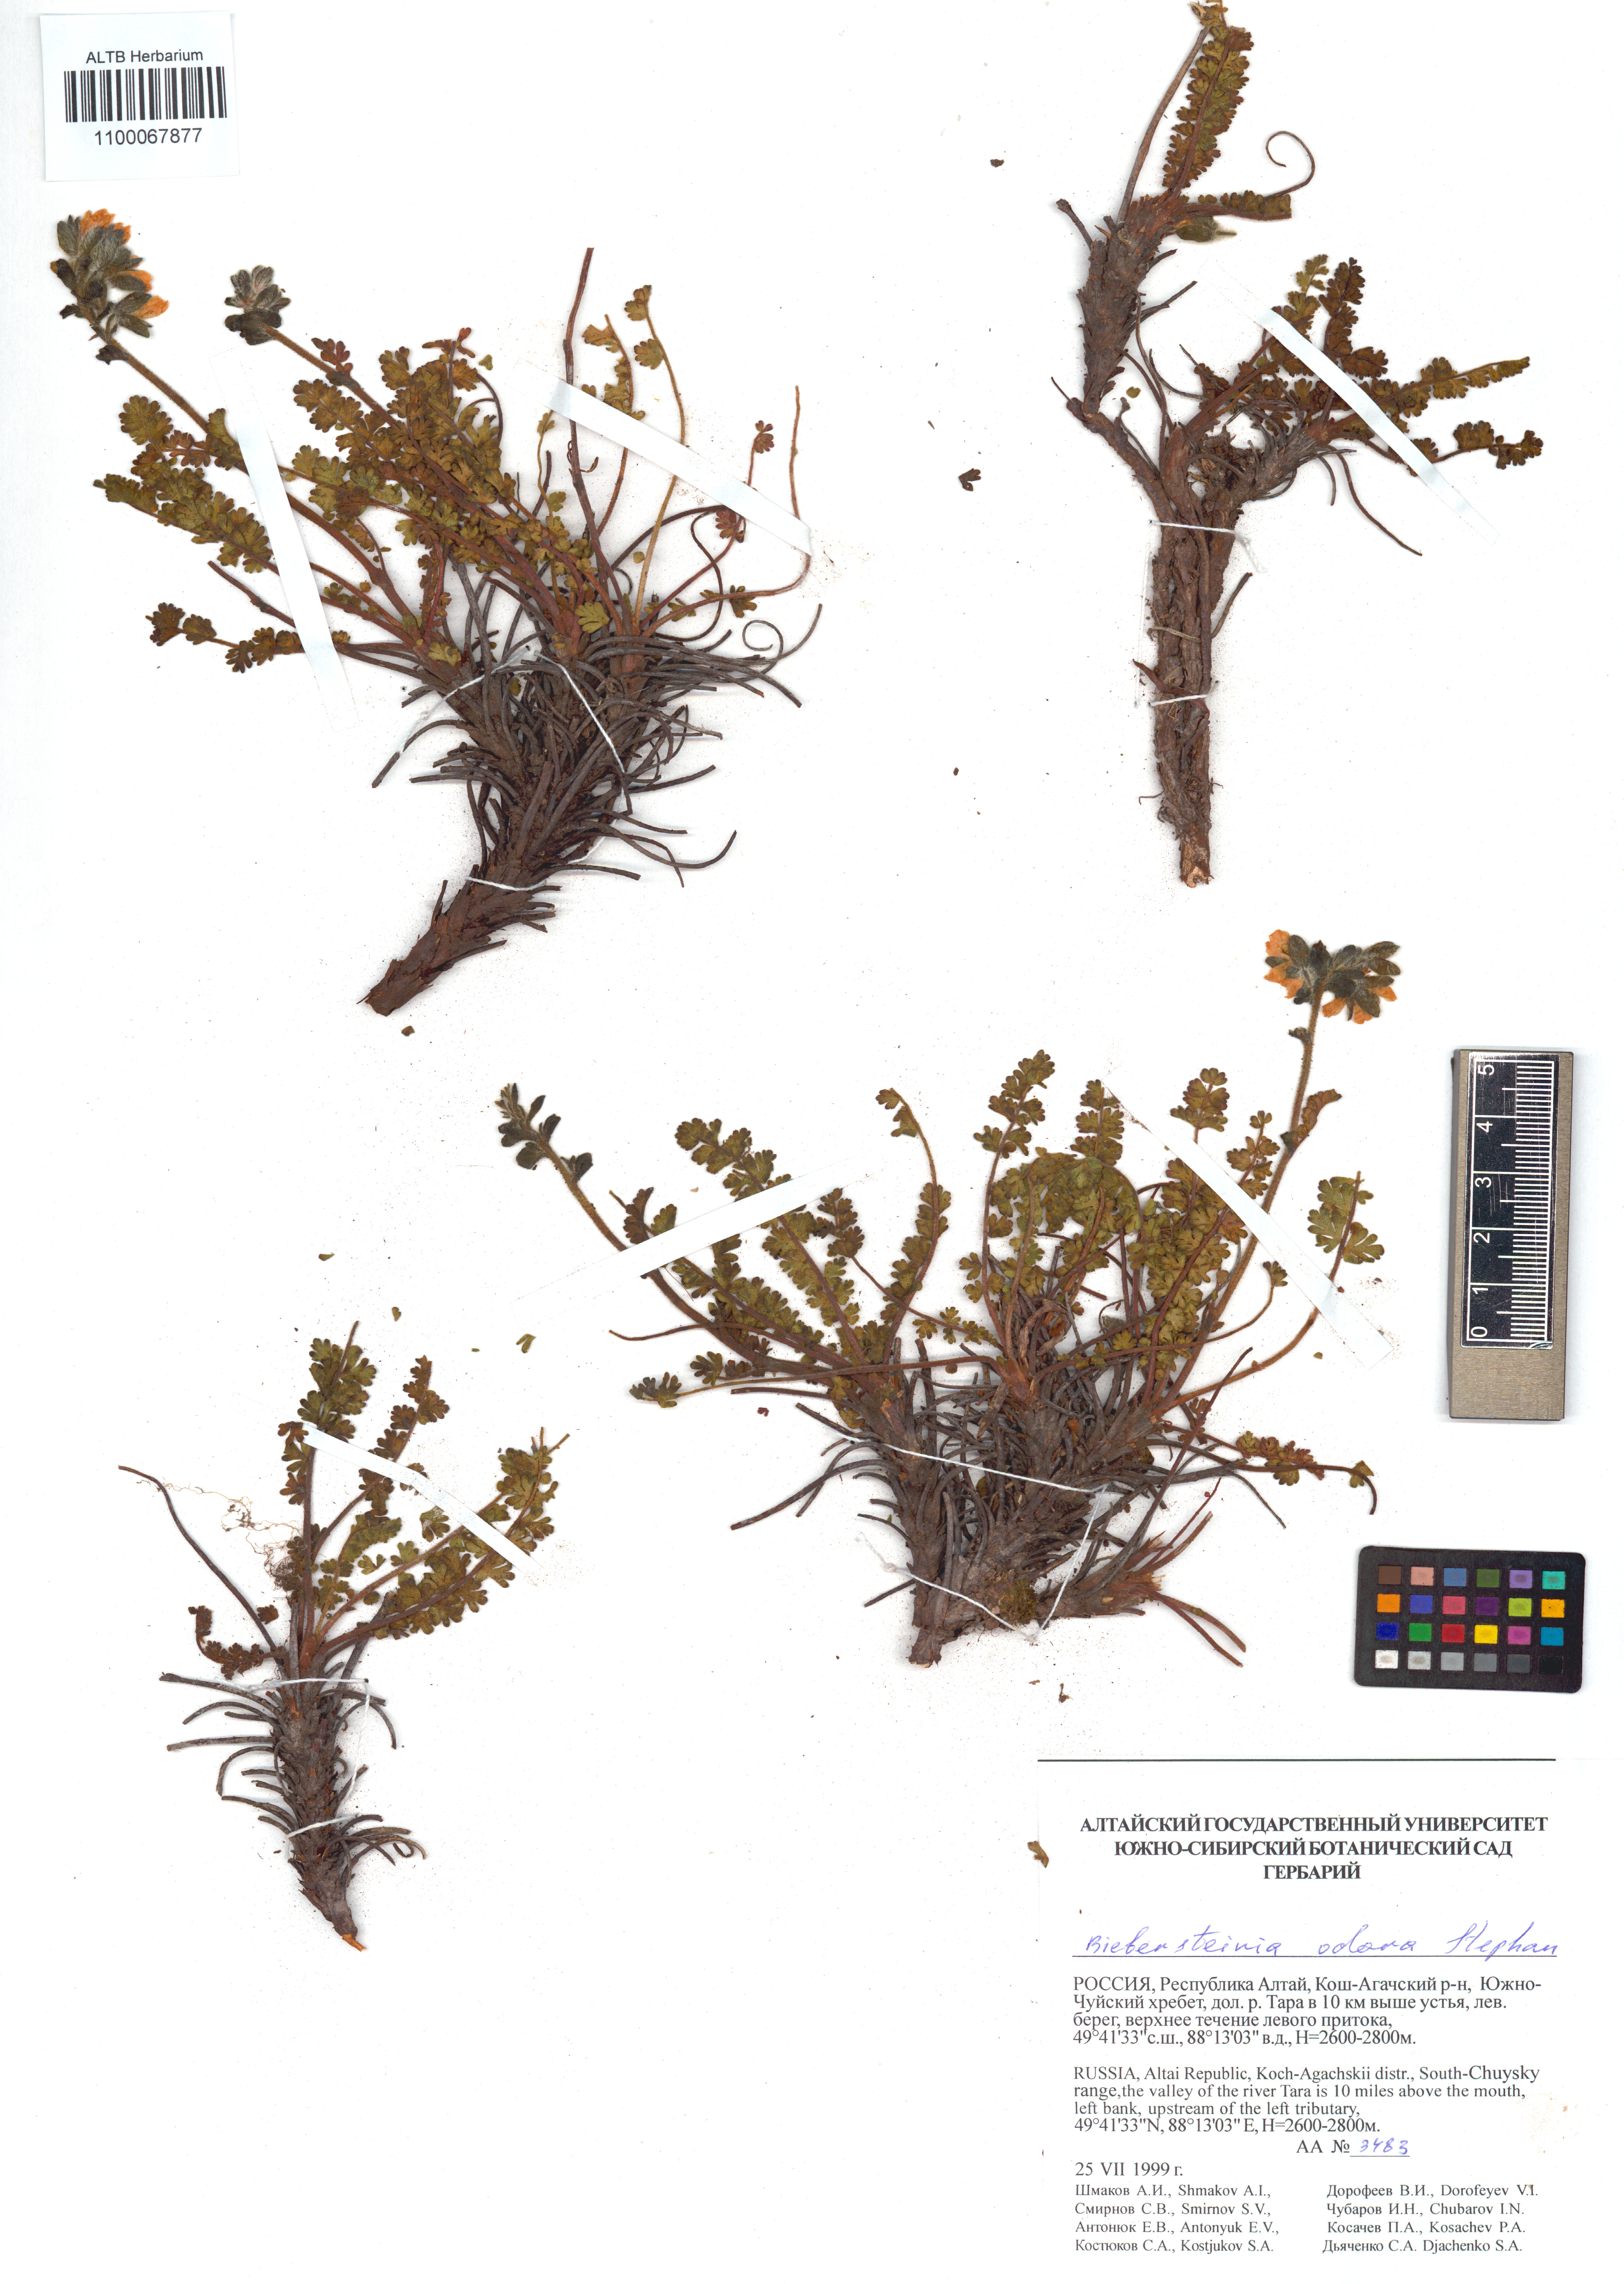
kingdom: Plantae
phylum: Tracheophyta
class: Magnoliopsida
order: Sapindales
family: Biebersteiniaceae
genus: Biebersteinia
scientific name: Biebersteinia odora
